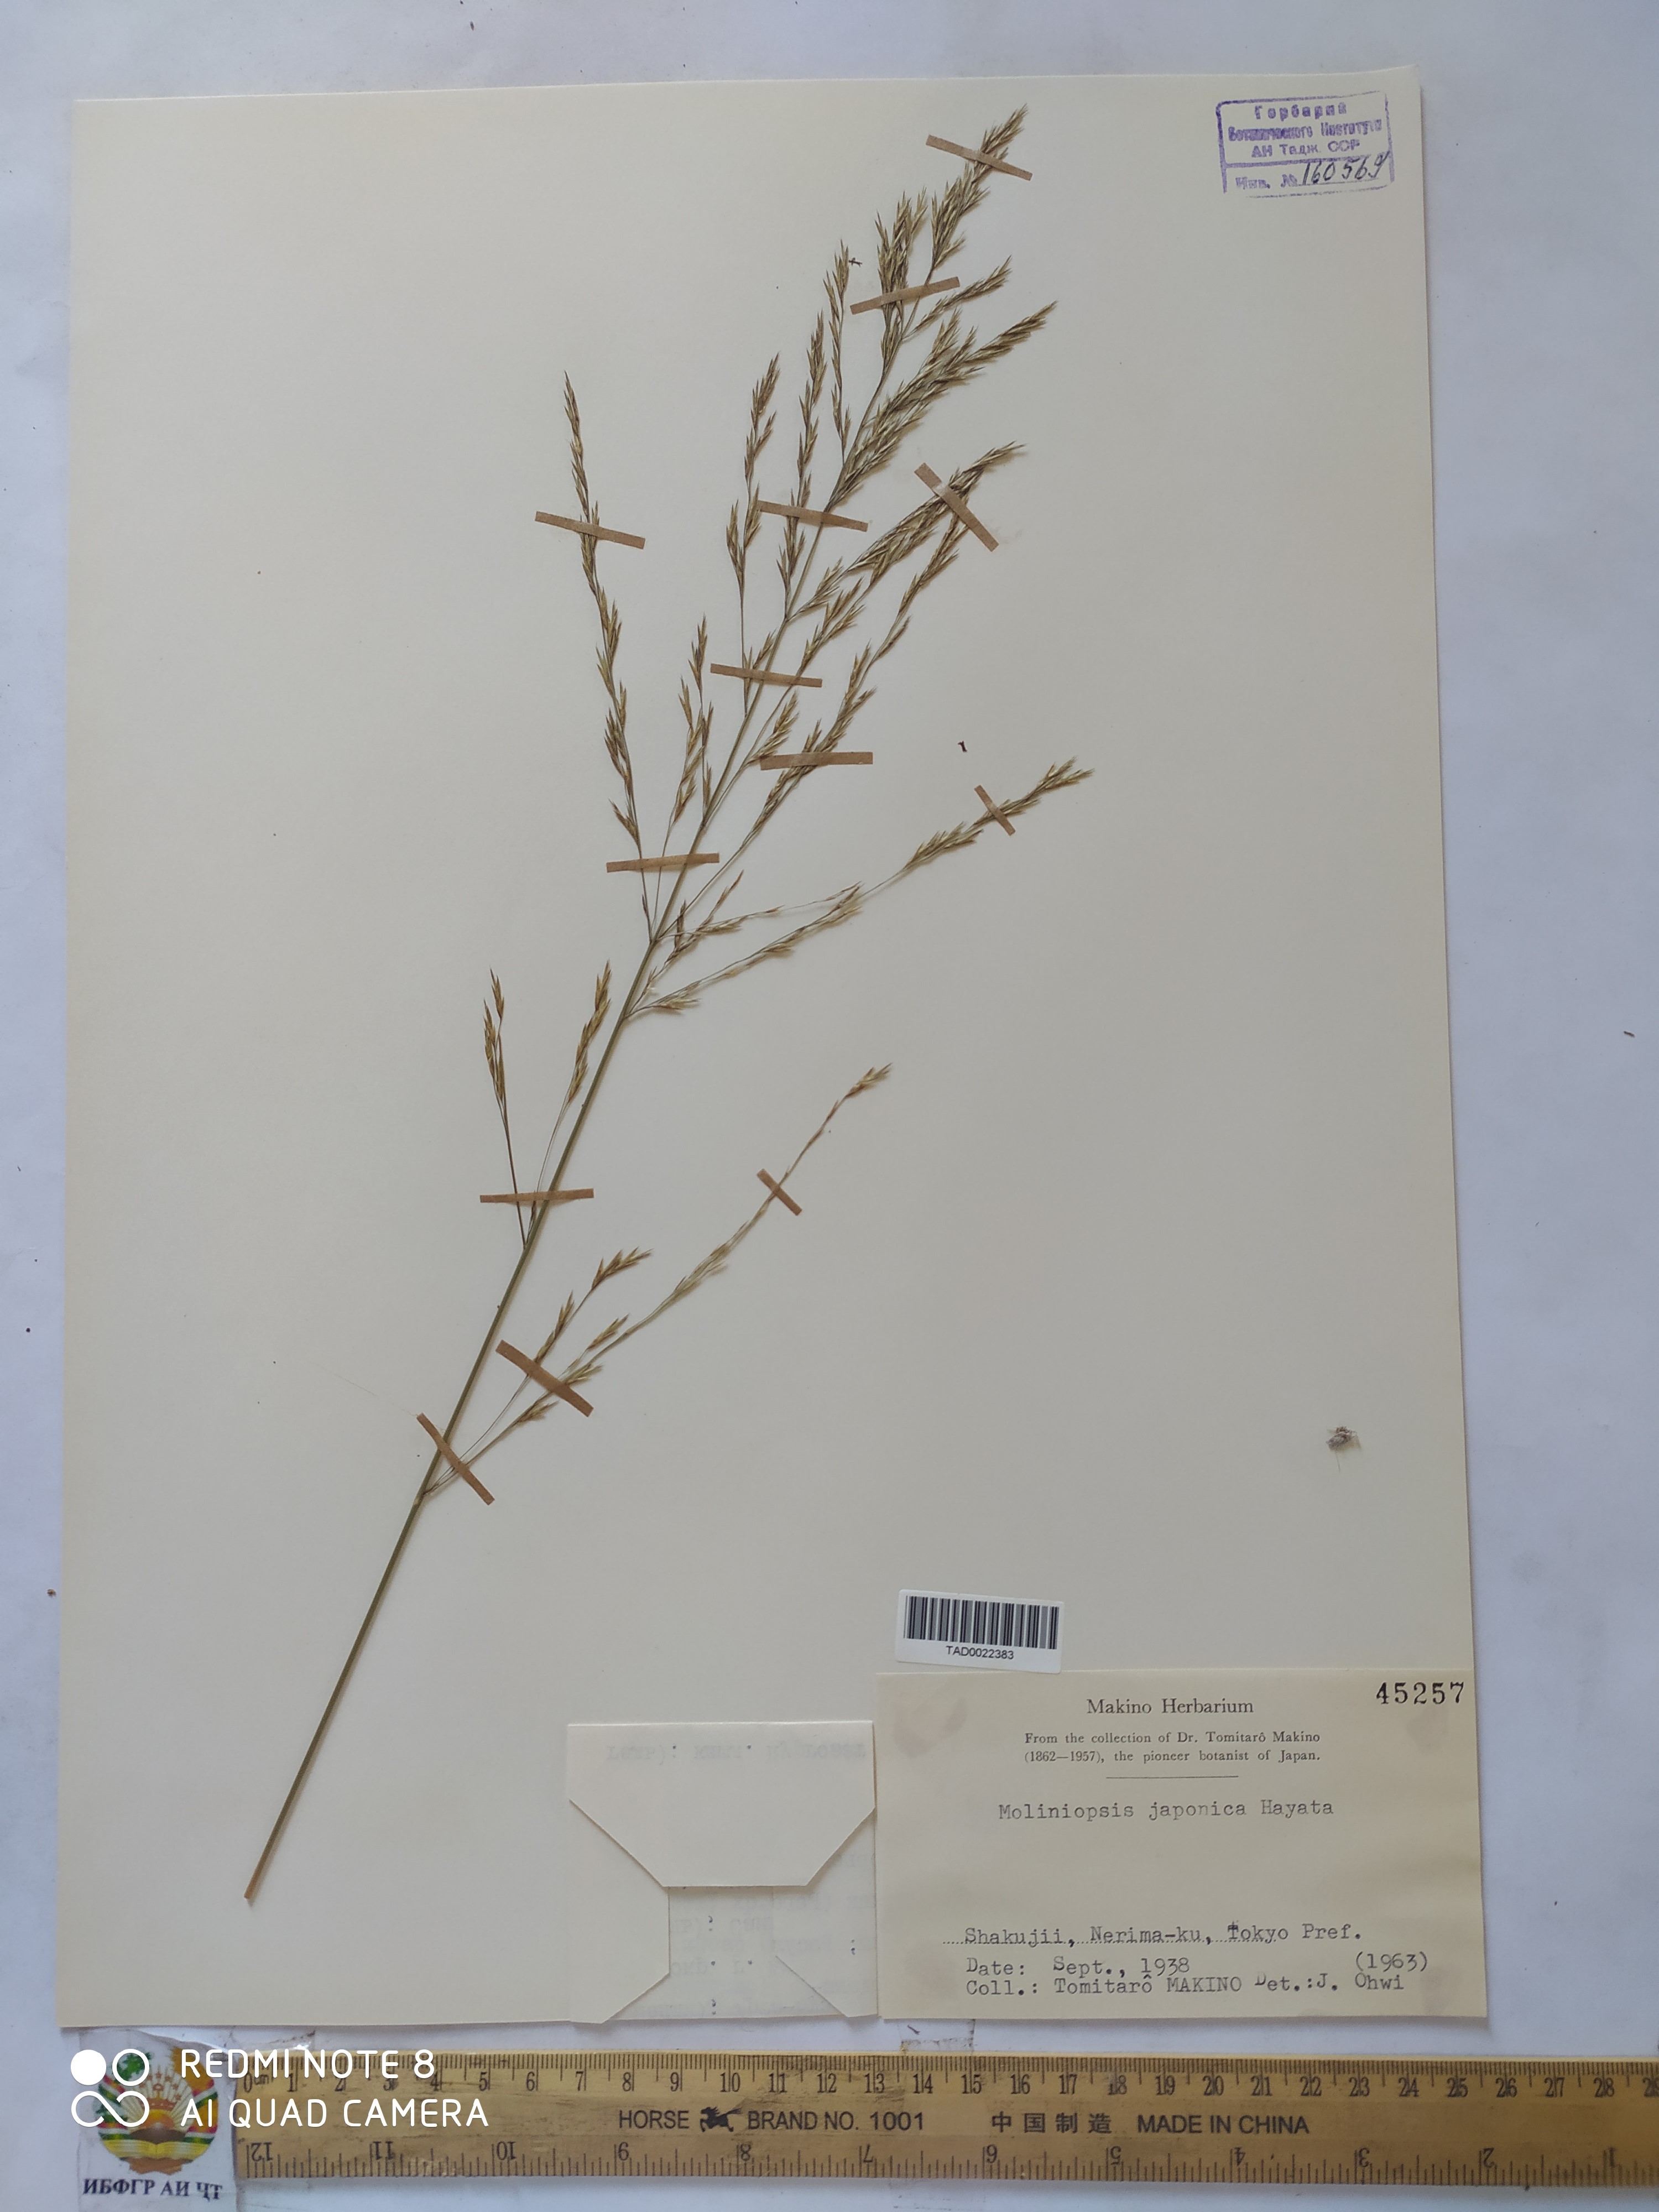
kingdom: Plantae
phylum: Tracheophyta
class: Liliopsida
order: Poales
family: Poaceae
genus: Moliniopsis
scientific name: Moliniopsis japonica
